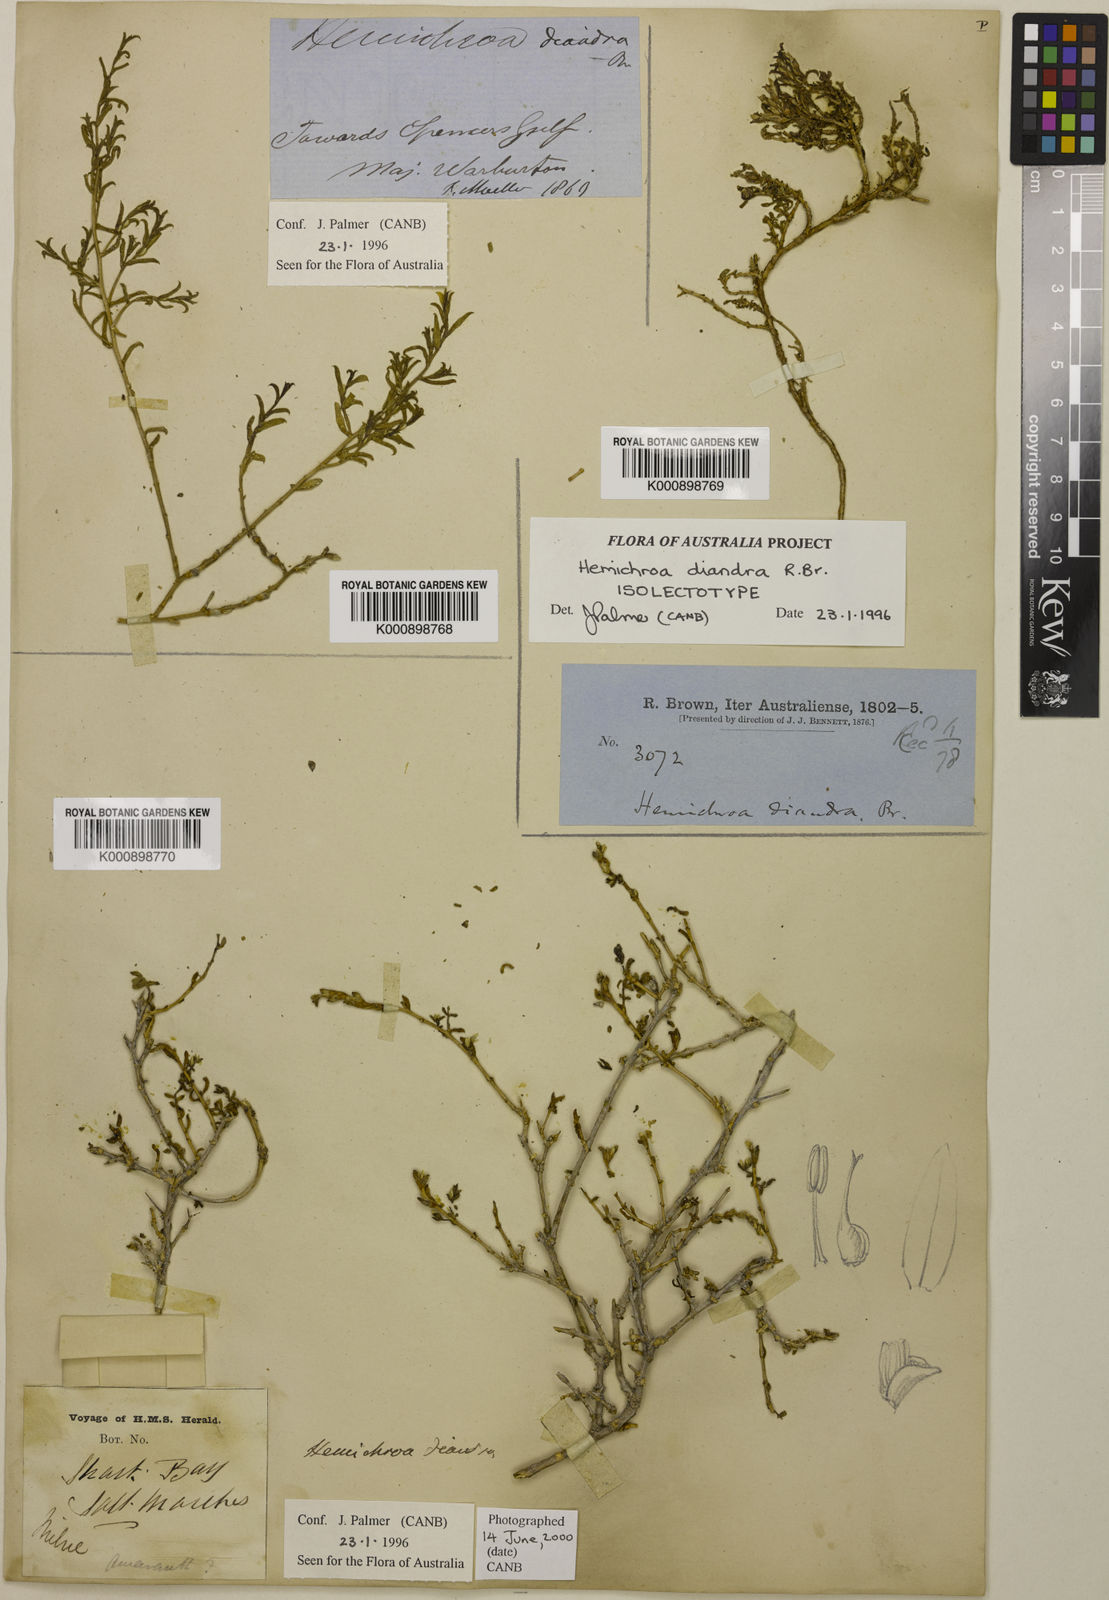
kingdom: Plantae
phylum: Tracheophyta
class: Magnoliopsida
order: Caryophyllales
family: Amaranthaceae
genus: Surreya
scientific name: Surreya diandra
